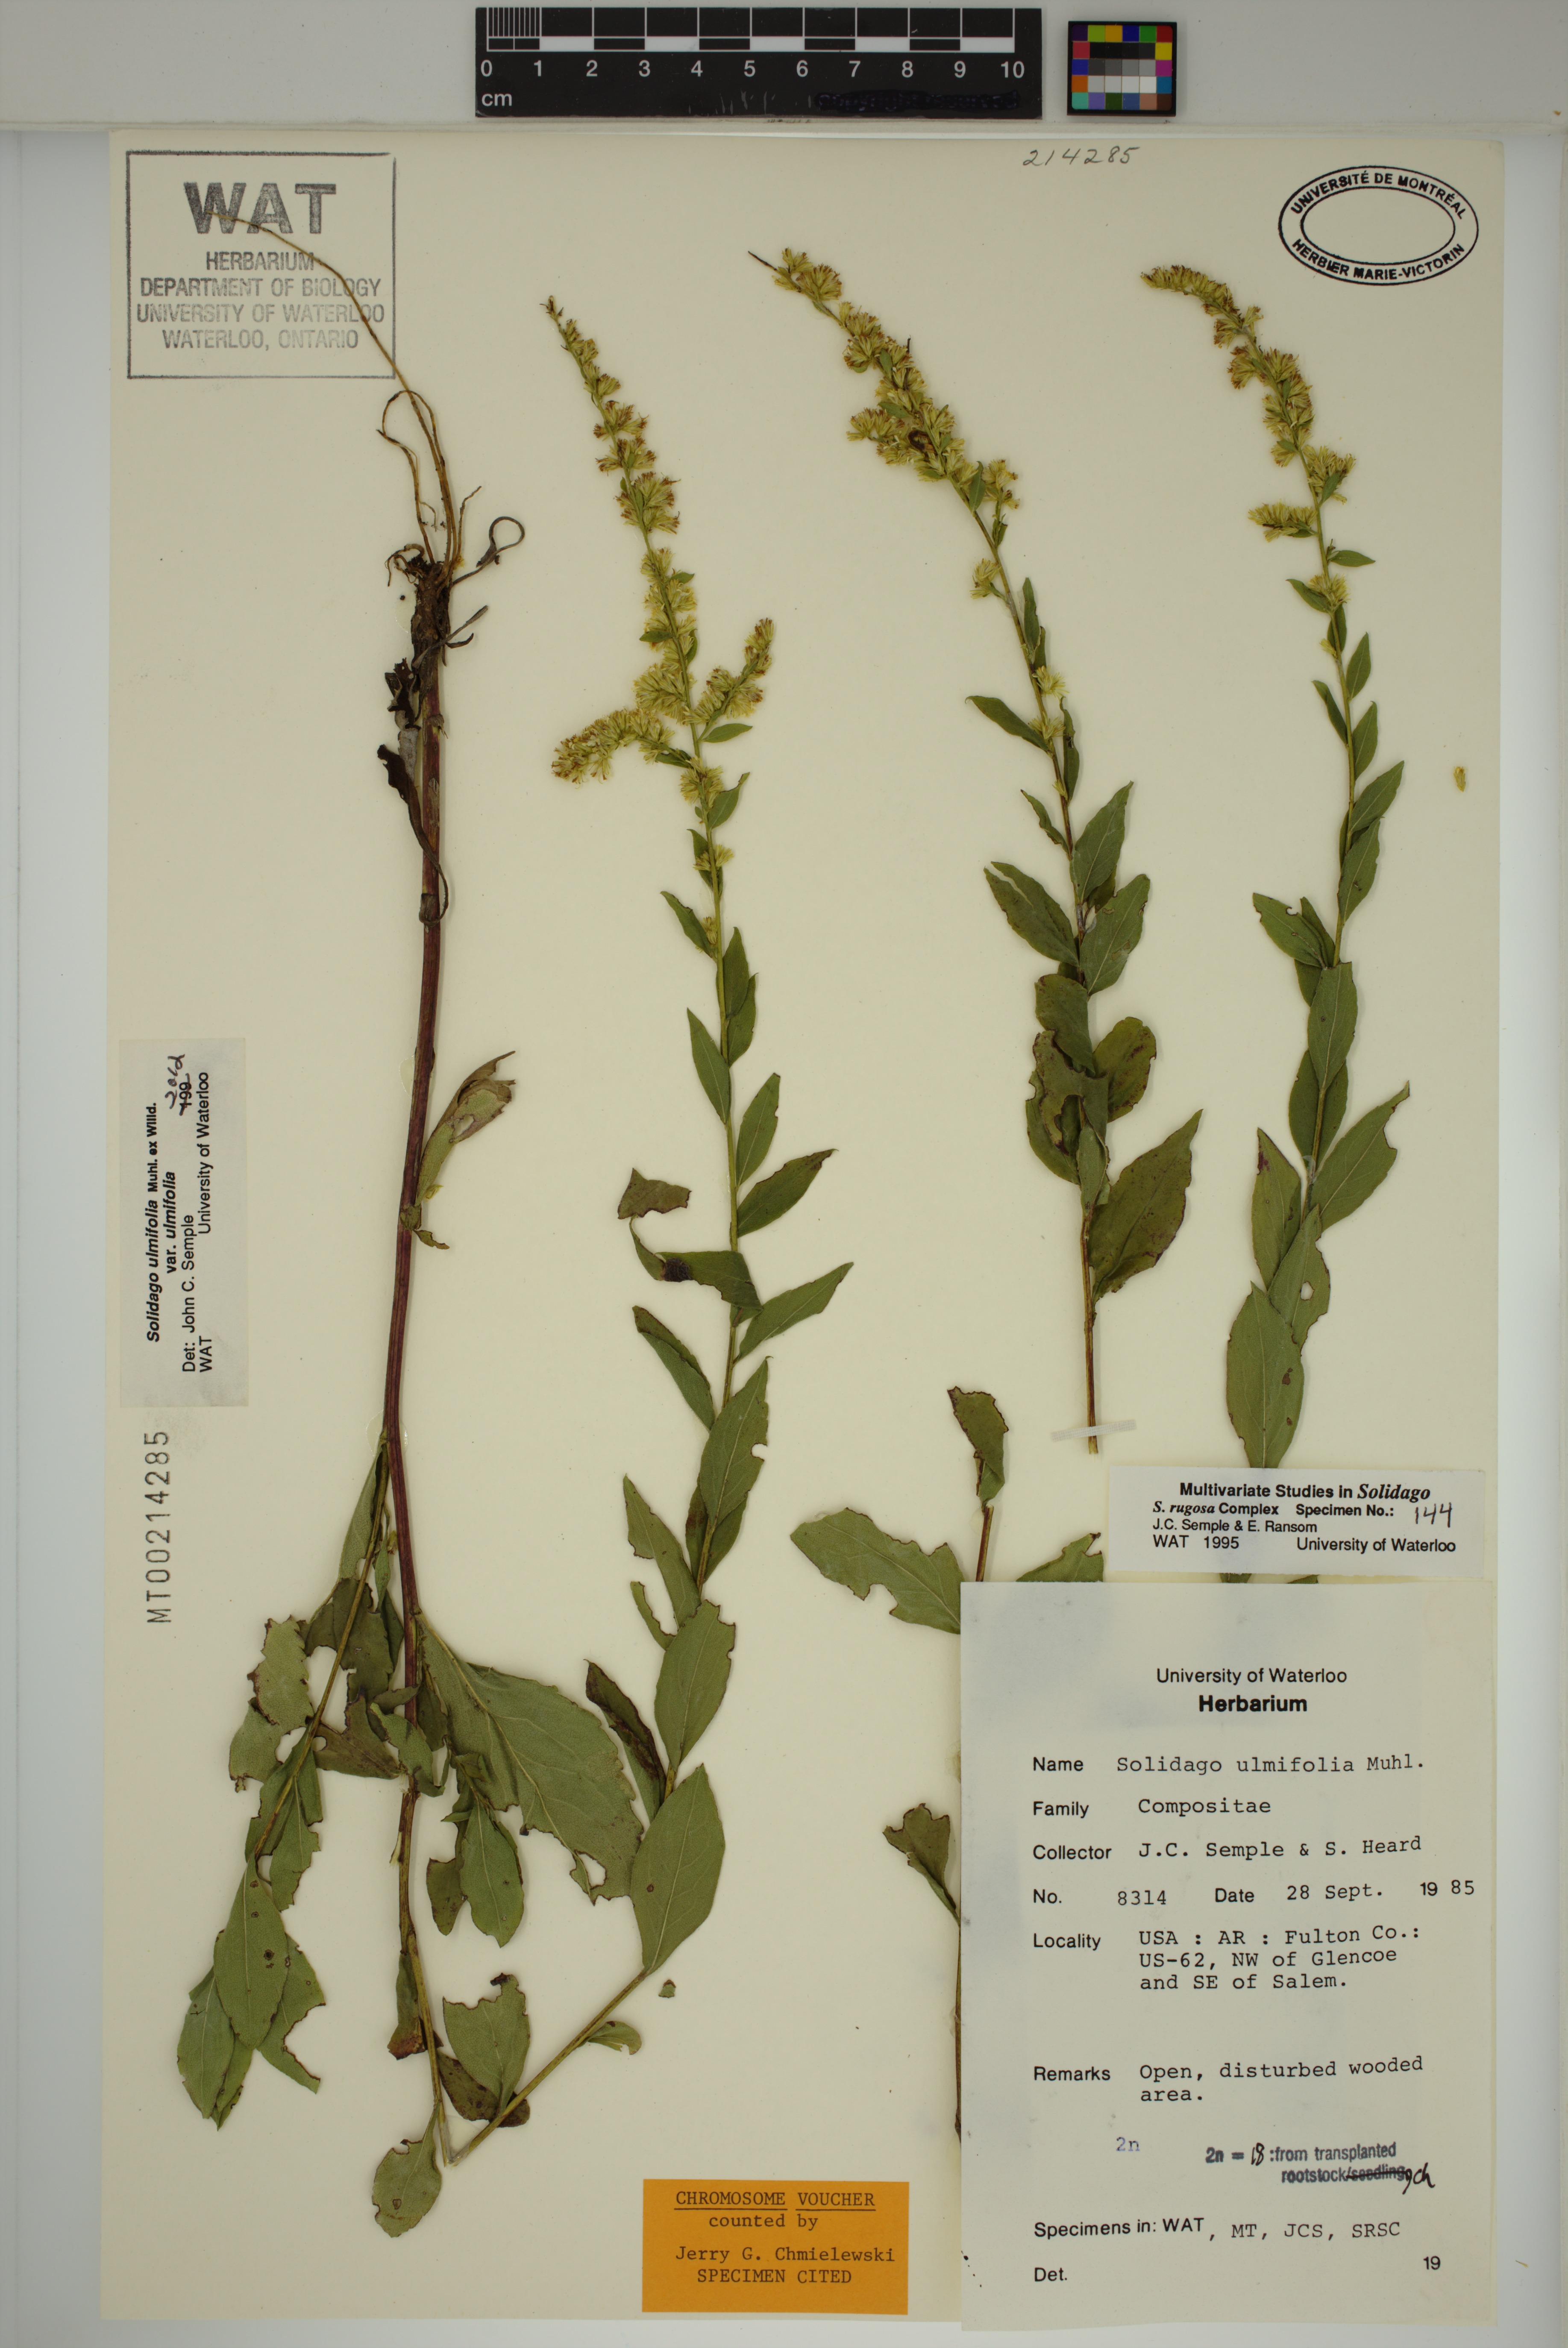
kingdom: Plantae
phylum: Tracheophyta
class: Magnoliopsida
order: Asterales
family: Asteraceae
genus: Solidago
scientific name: Solidago ulmifolia
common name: Elm-leaf goldenrod
